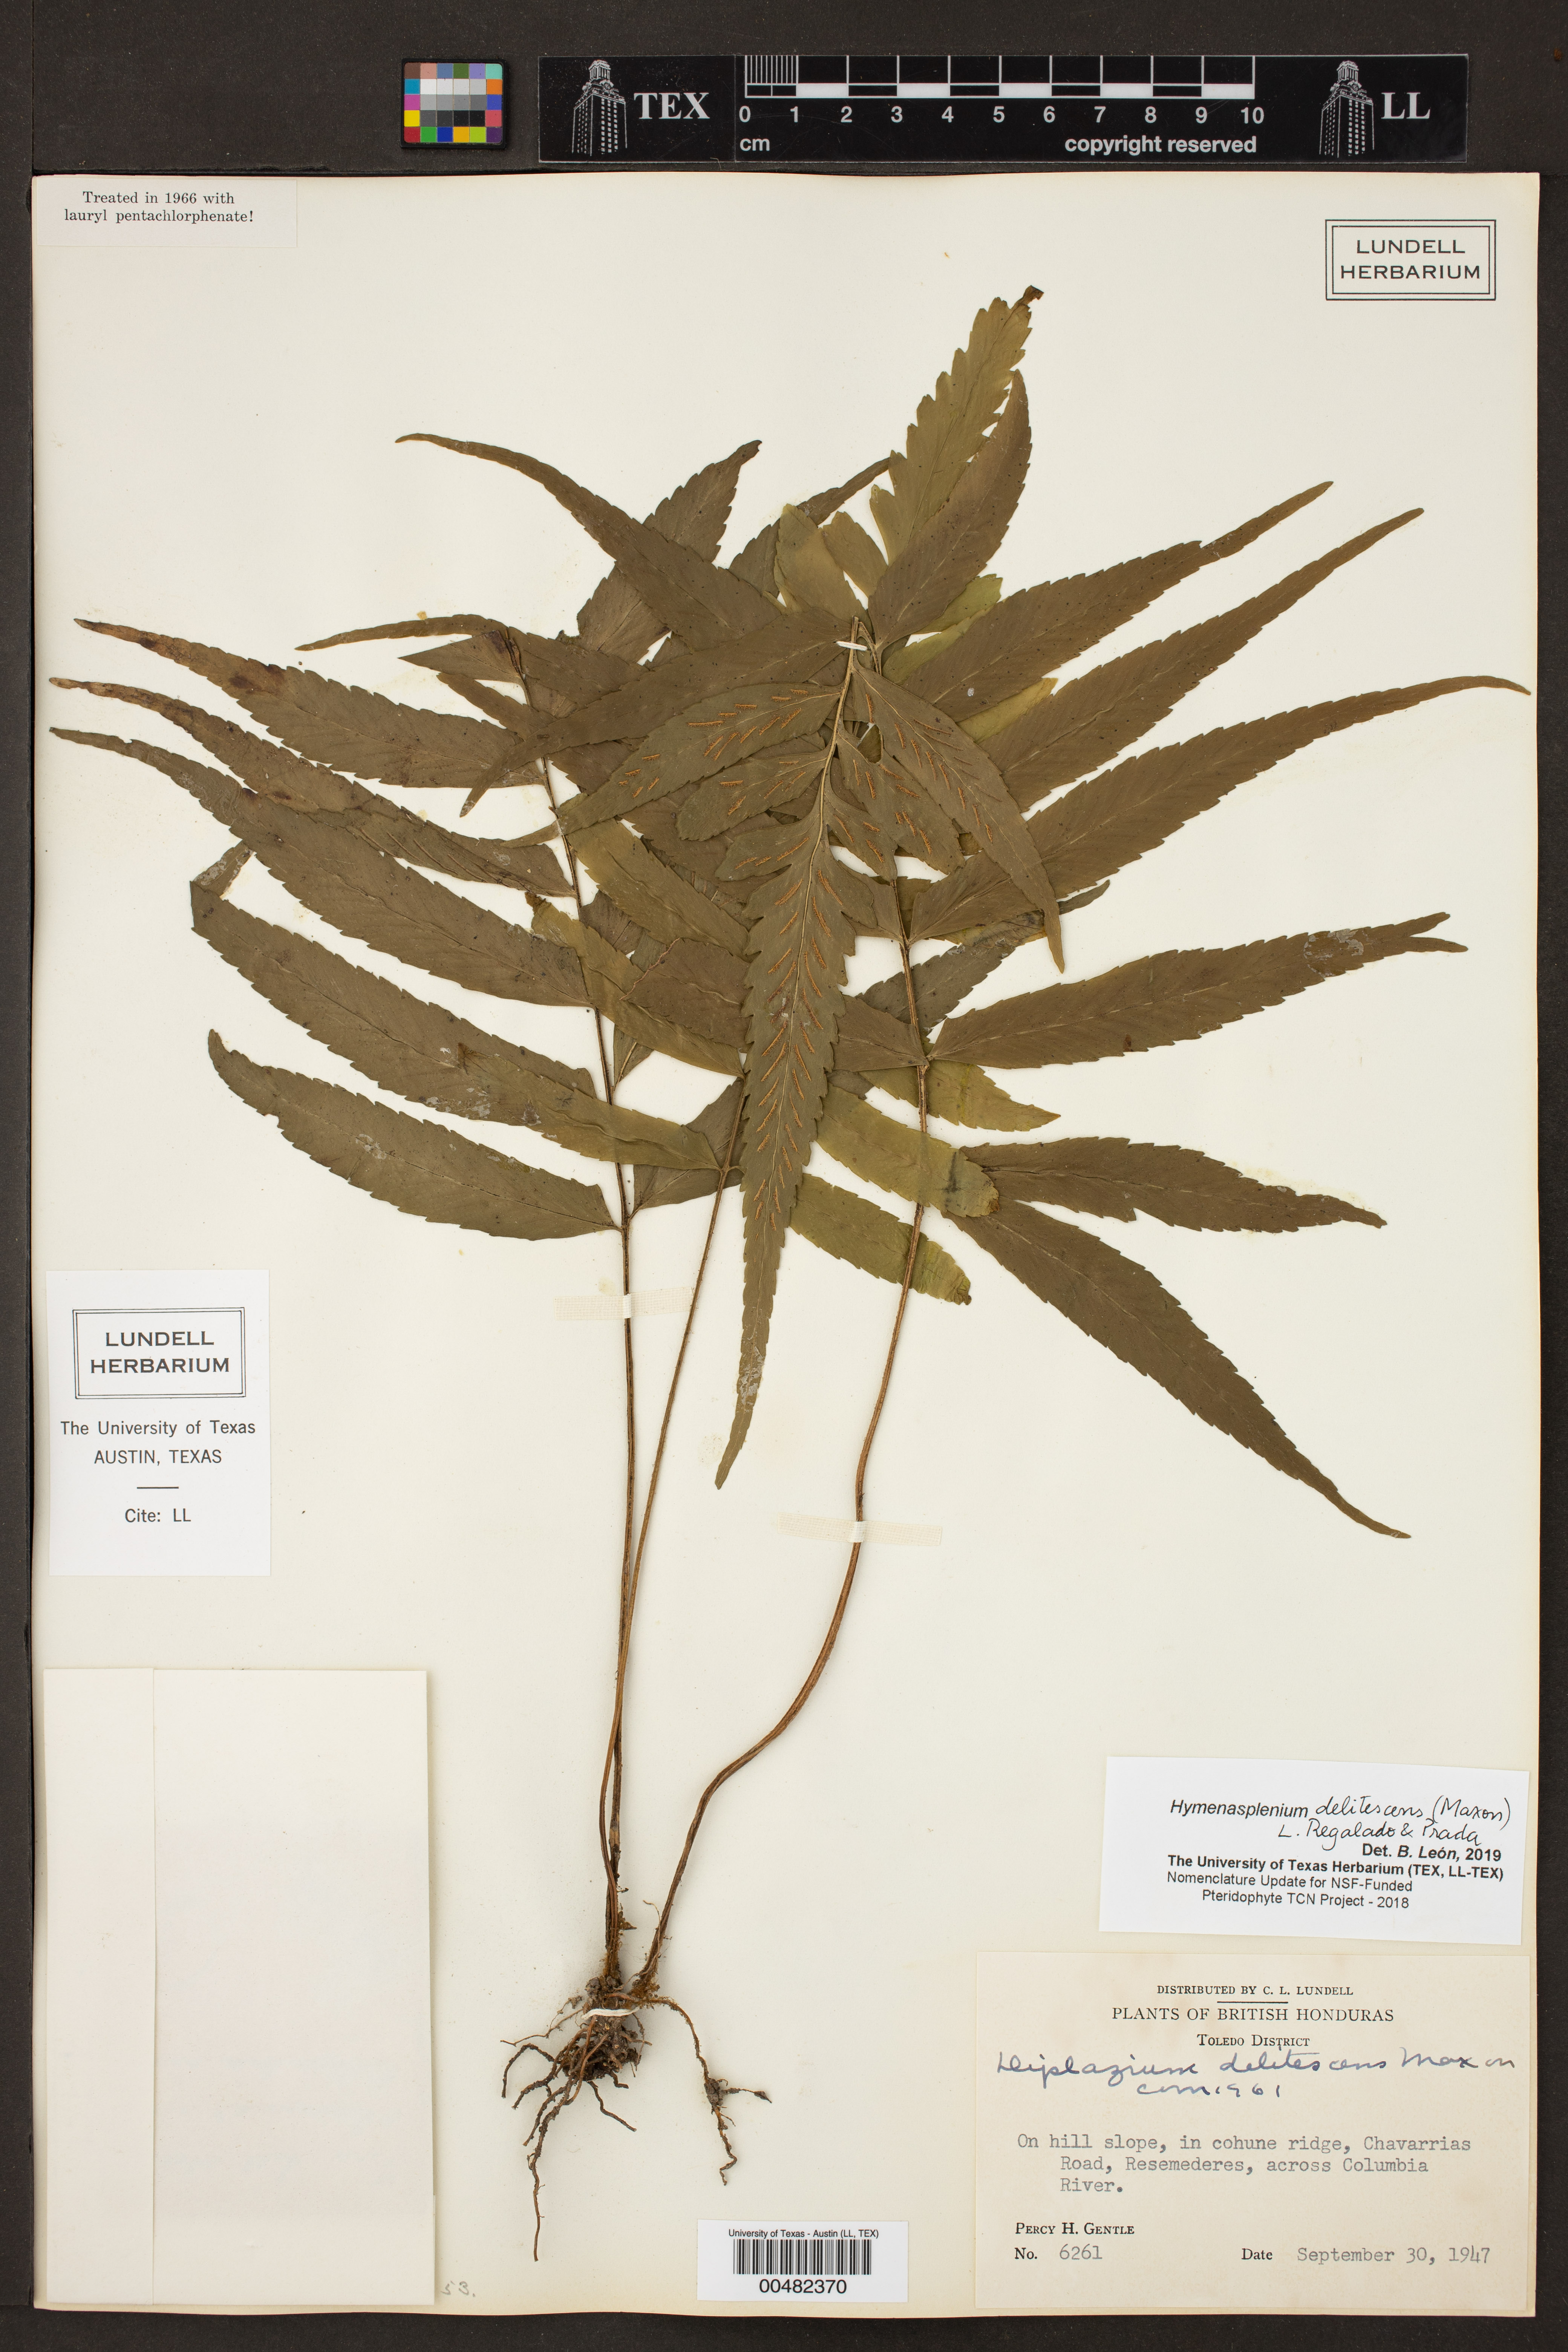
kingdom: Plantae
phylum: Tracheophyta
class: Polypodiopsida
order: Polypodiales
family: Aspleniaceae
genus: Hymenasplenium
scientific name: Hymenasplenium delitescens
